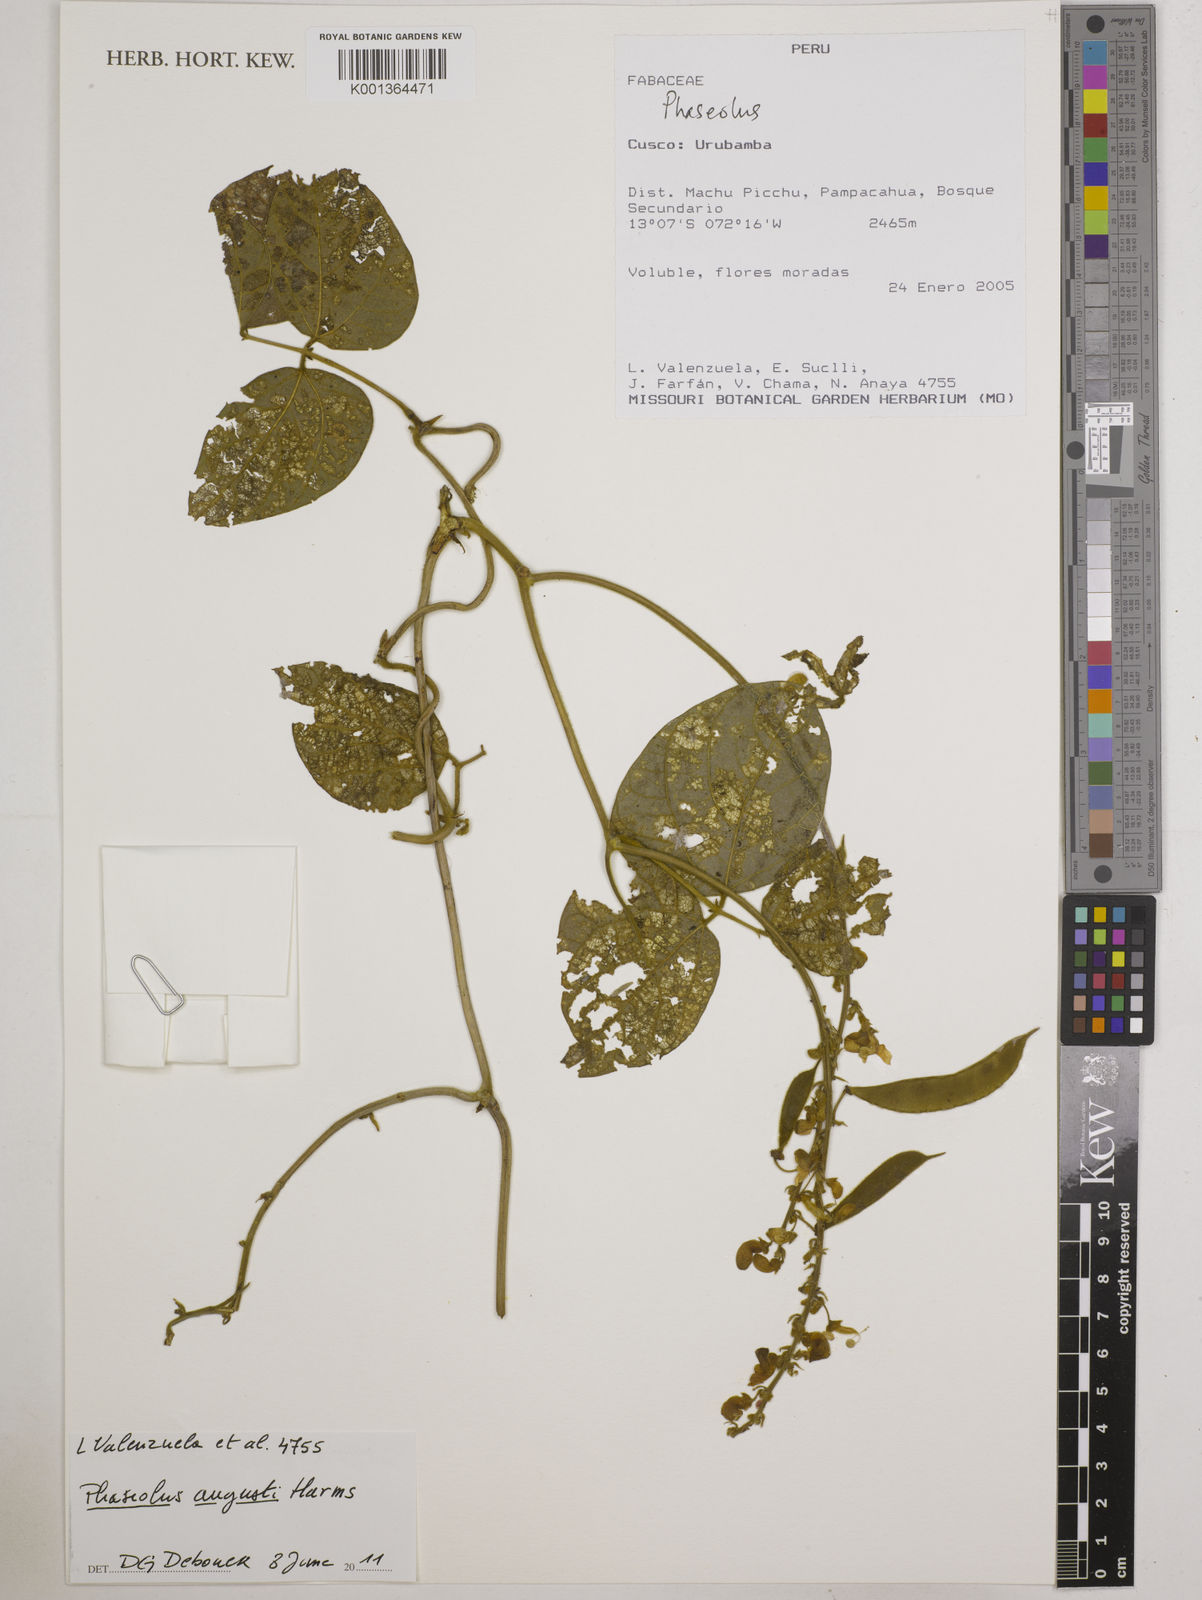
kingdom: Plantae
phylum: Tracheophyta
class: Magnoliopsida
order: Fabales
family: Fabaceae
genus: Phaseolus
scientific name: Phaseolus augusti
